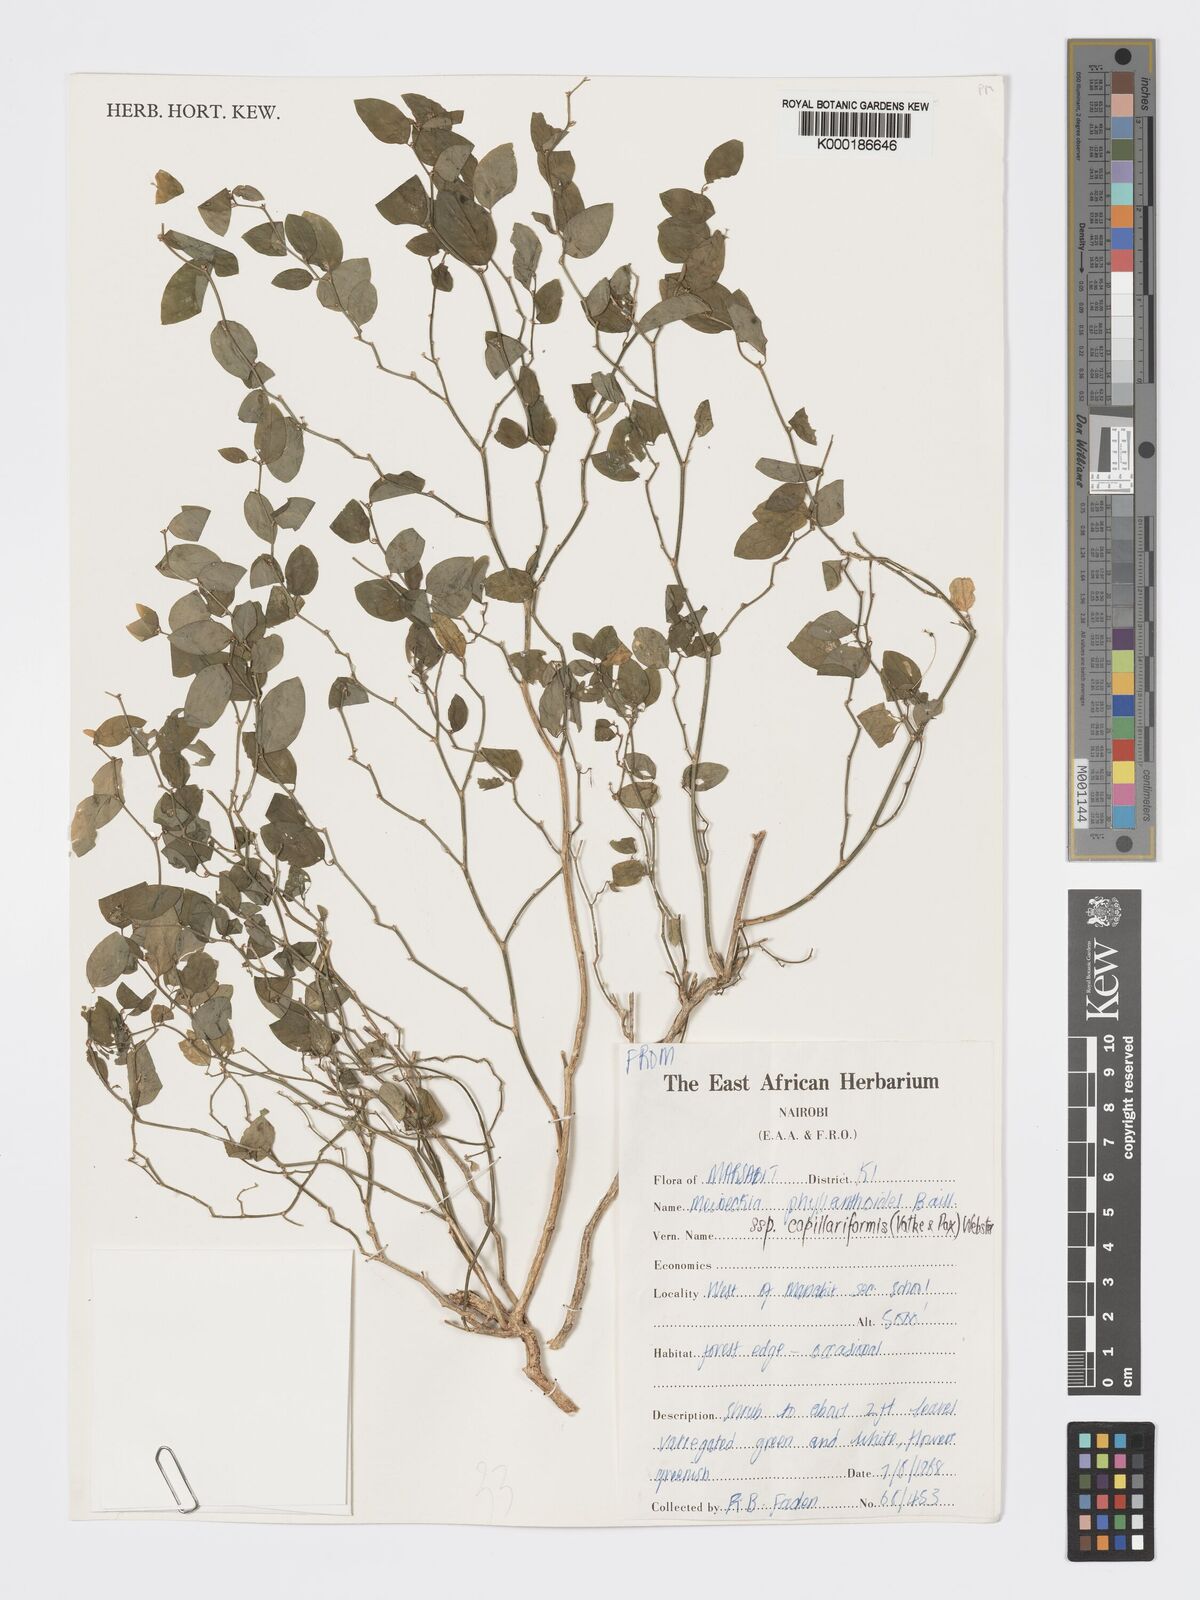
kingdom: Plantae
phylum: Tracheophyta
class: Magnoliopsida
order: Malpighiales
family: Phyllanthaceae
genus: Meineckia
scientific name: Meineckia phyllanthoides
